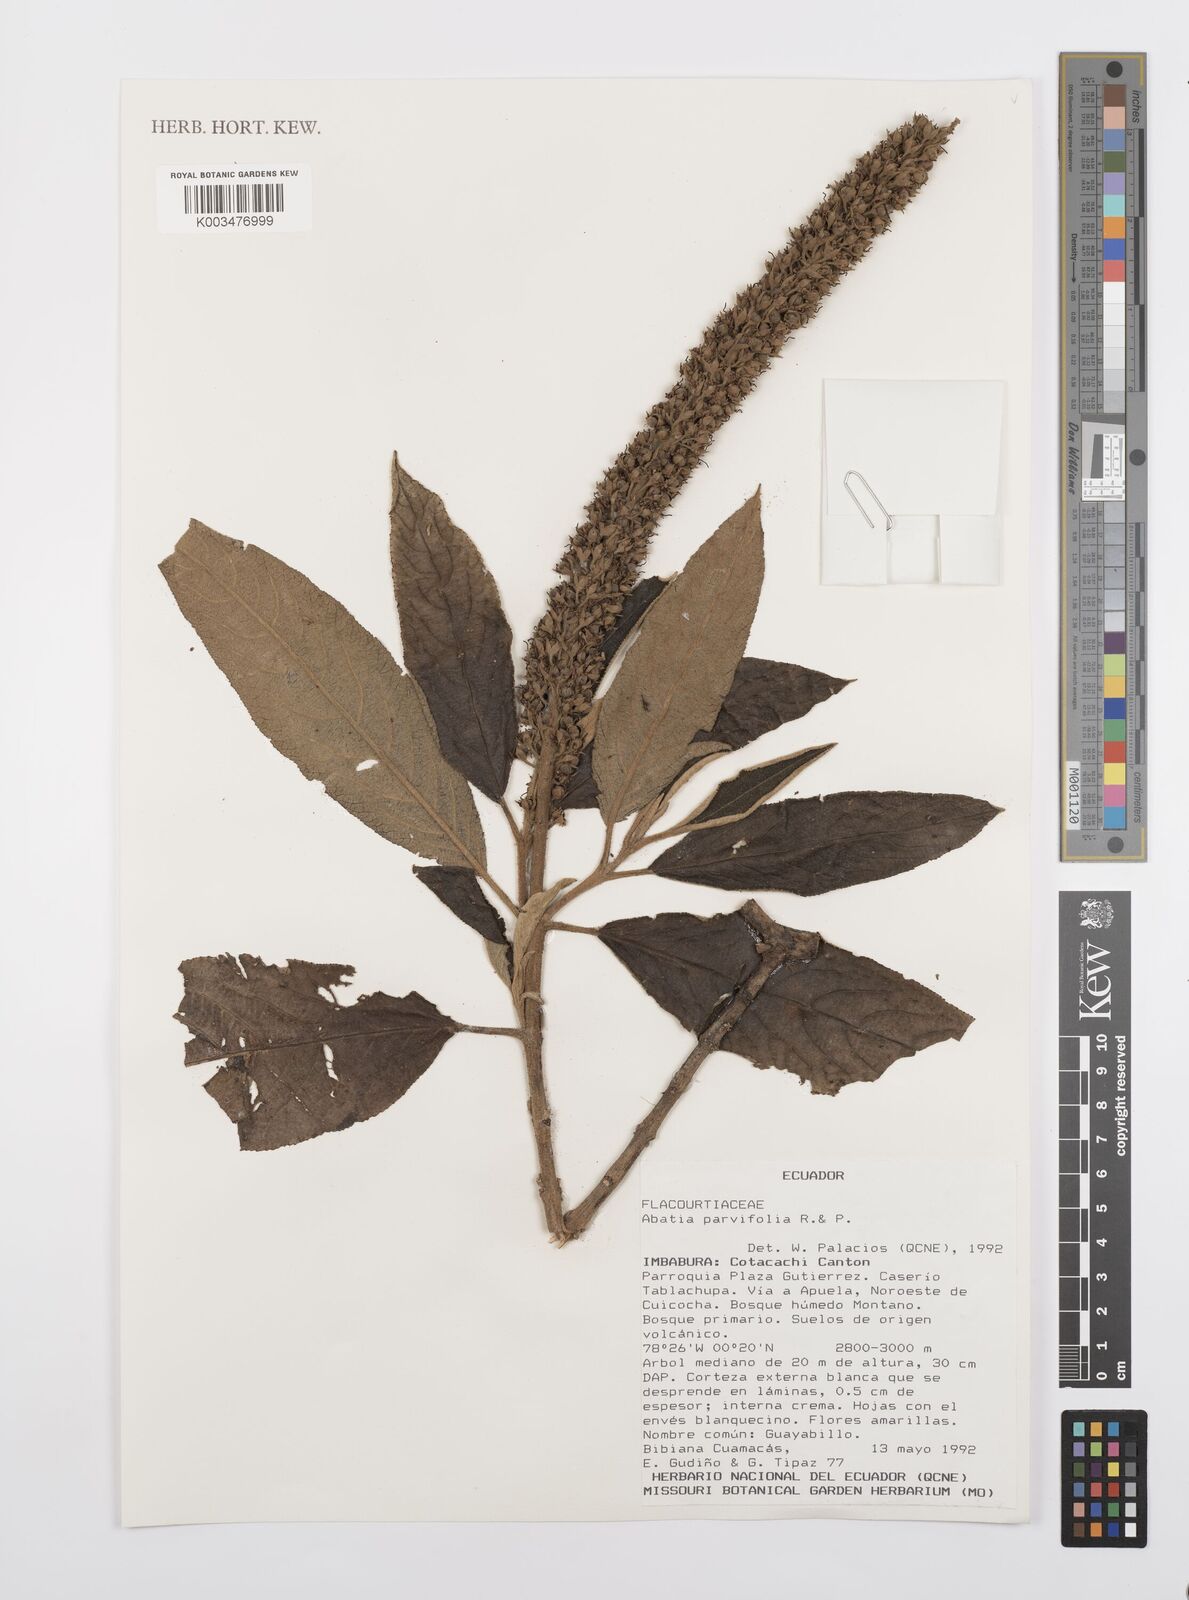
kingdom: Plantae
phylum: Tracheophyta
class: Magnoliopsida
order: Malpighiales
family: Salicaceae
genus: Abatia
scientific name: Abatia parviflora
